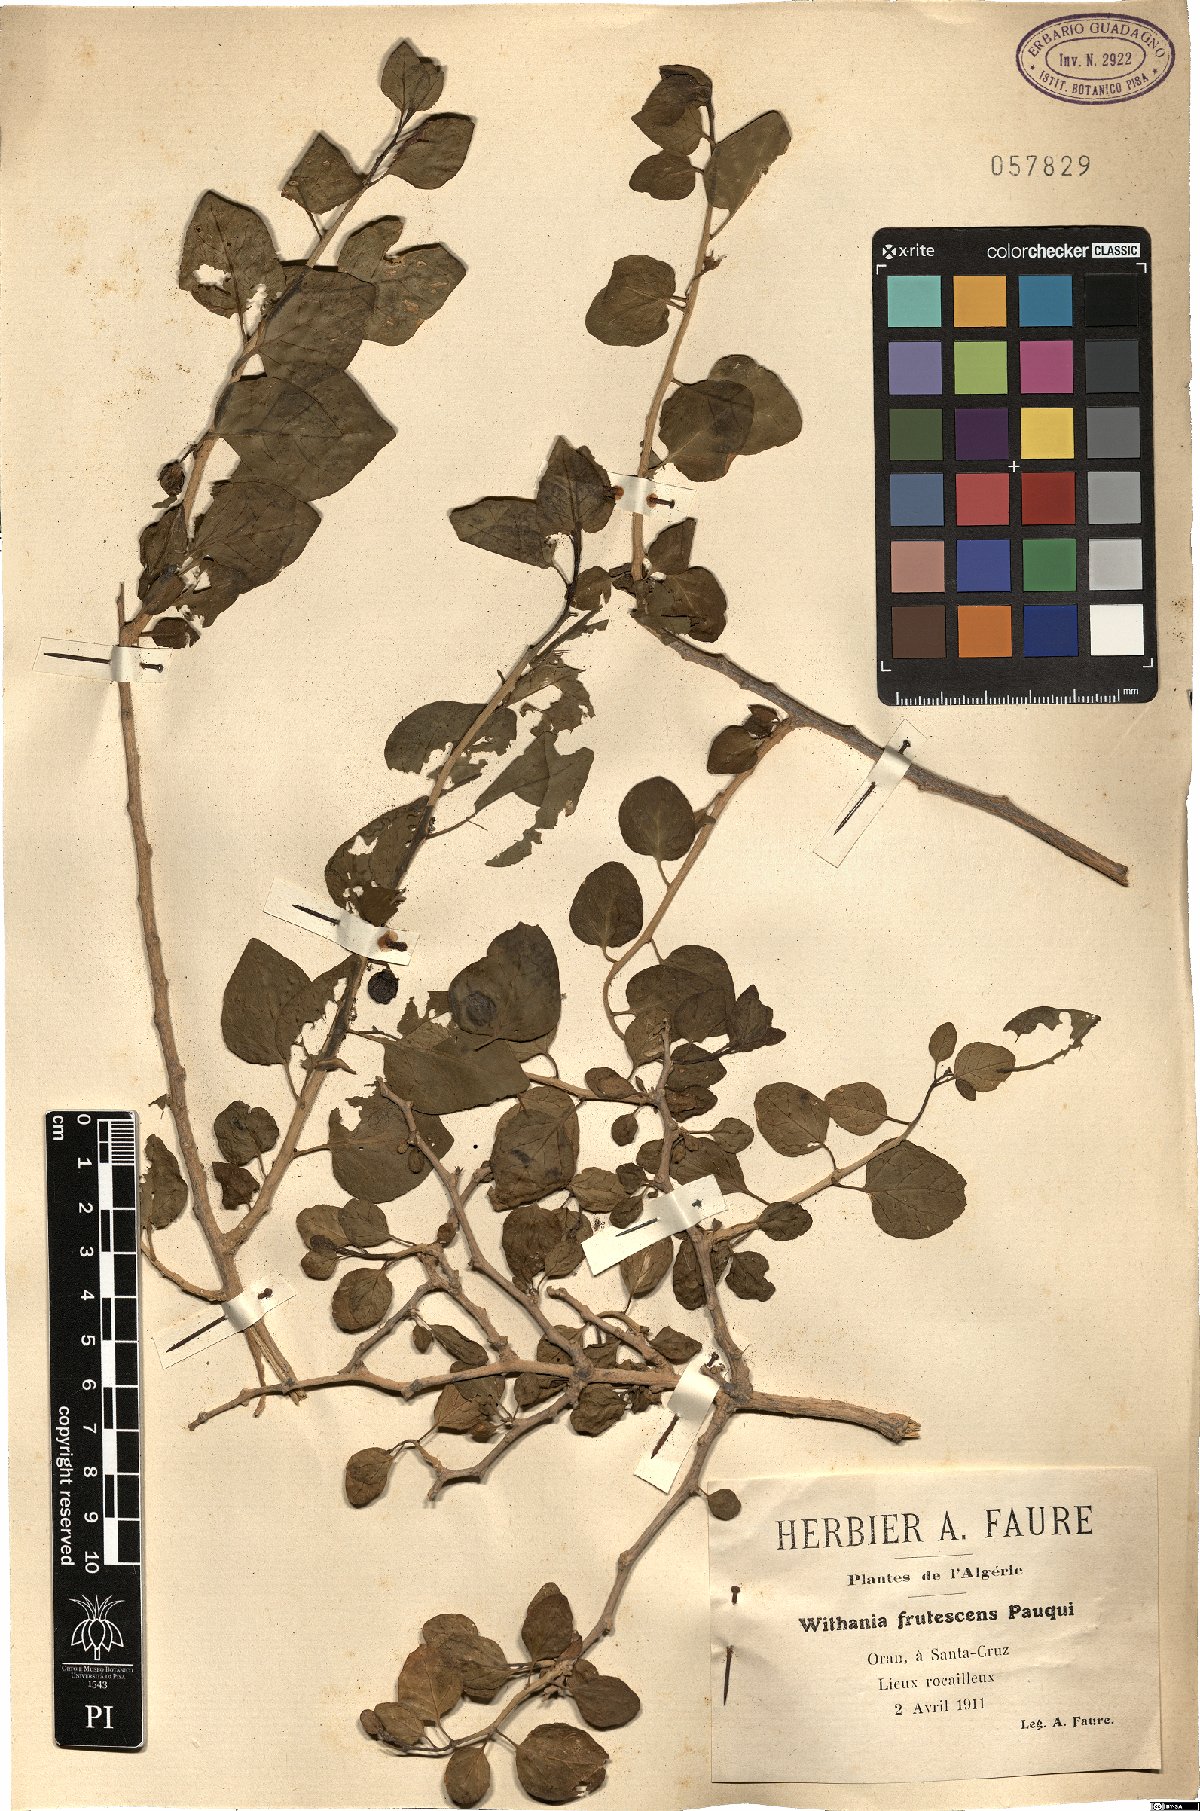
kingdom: Plantae
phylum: Tracheophyta
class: Magnoliopsida
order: Solanales
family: Solanaceae
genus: Withania
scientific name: Withania frutescens
